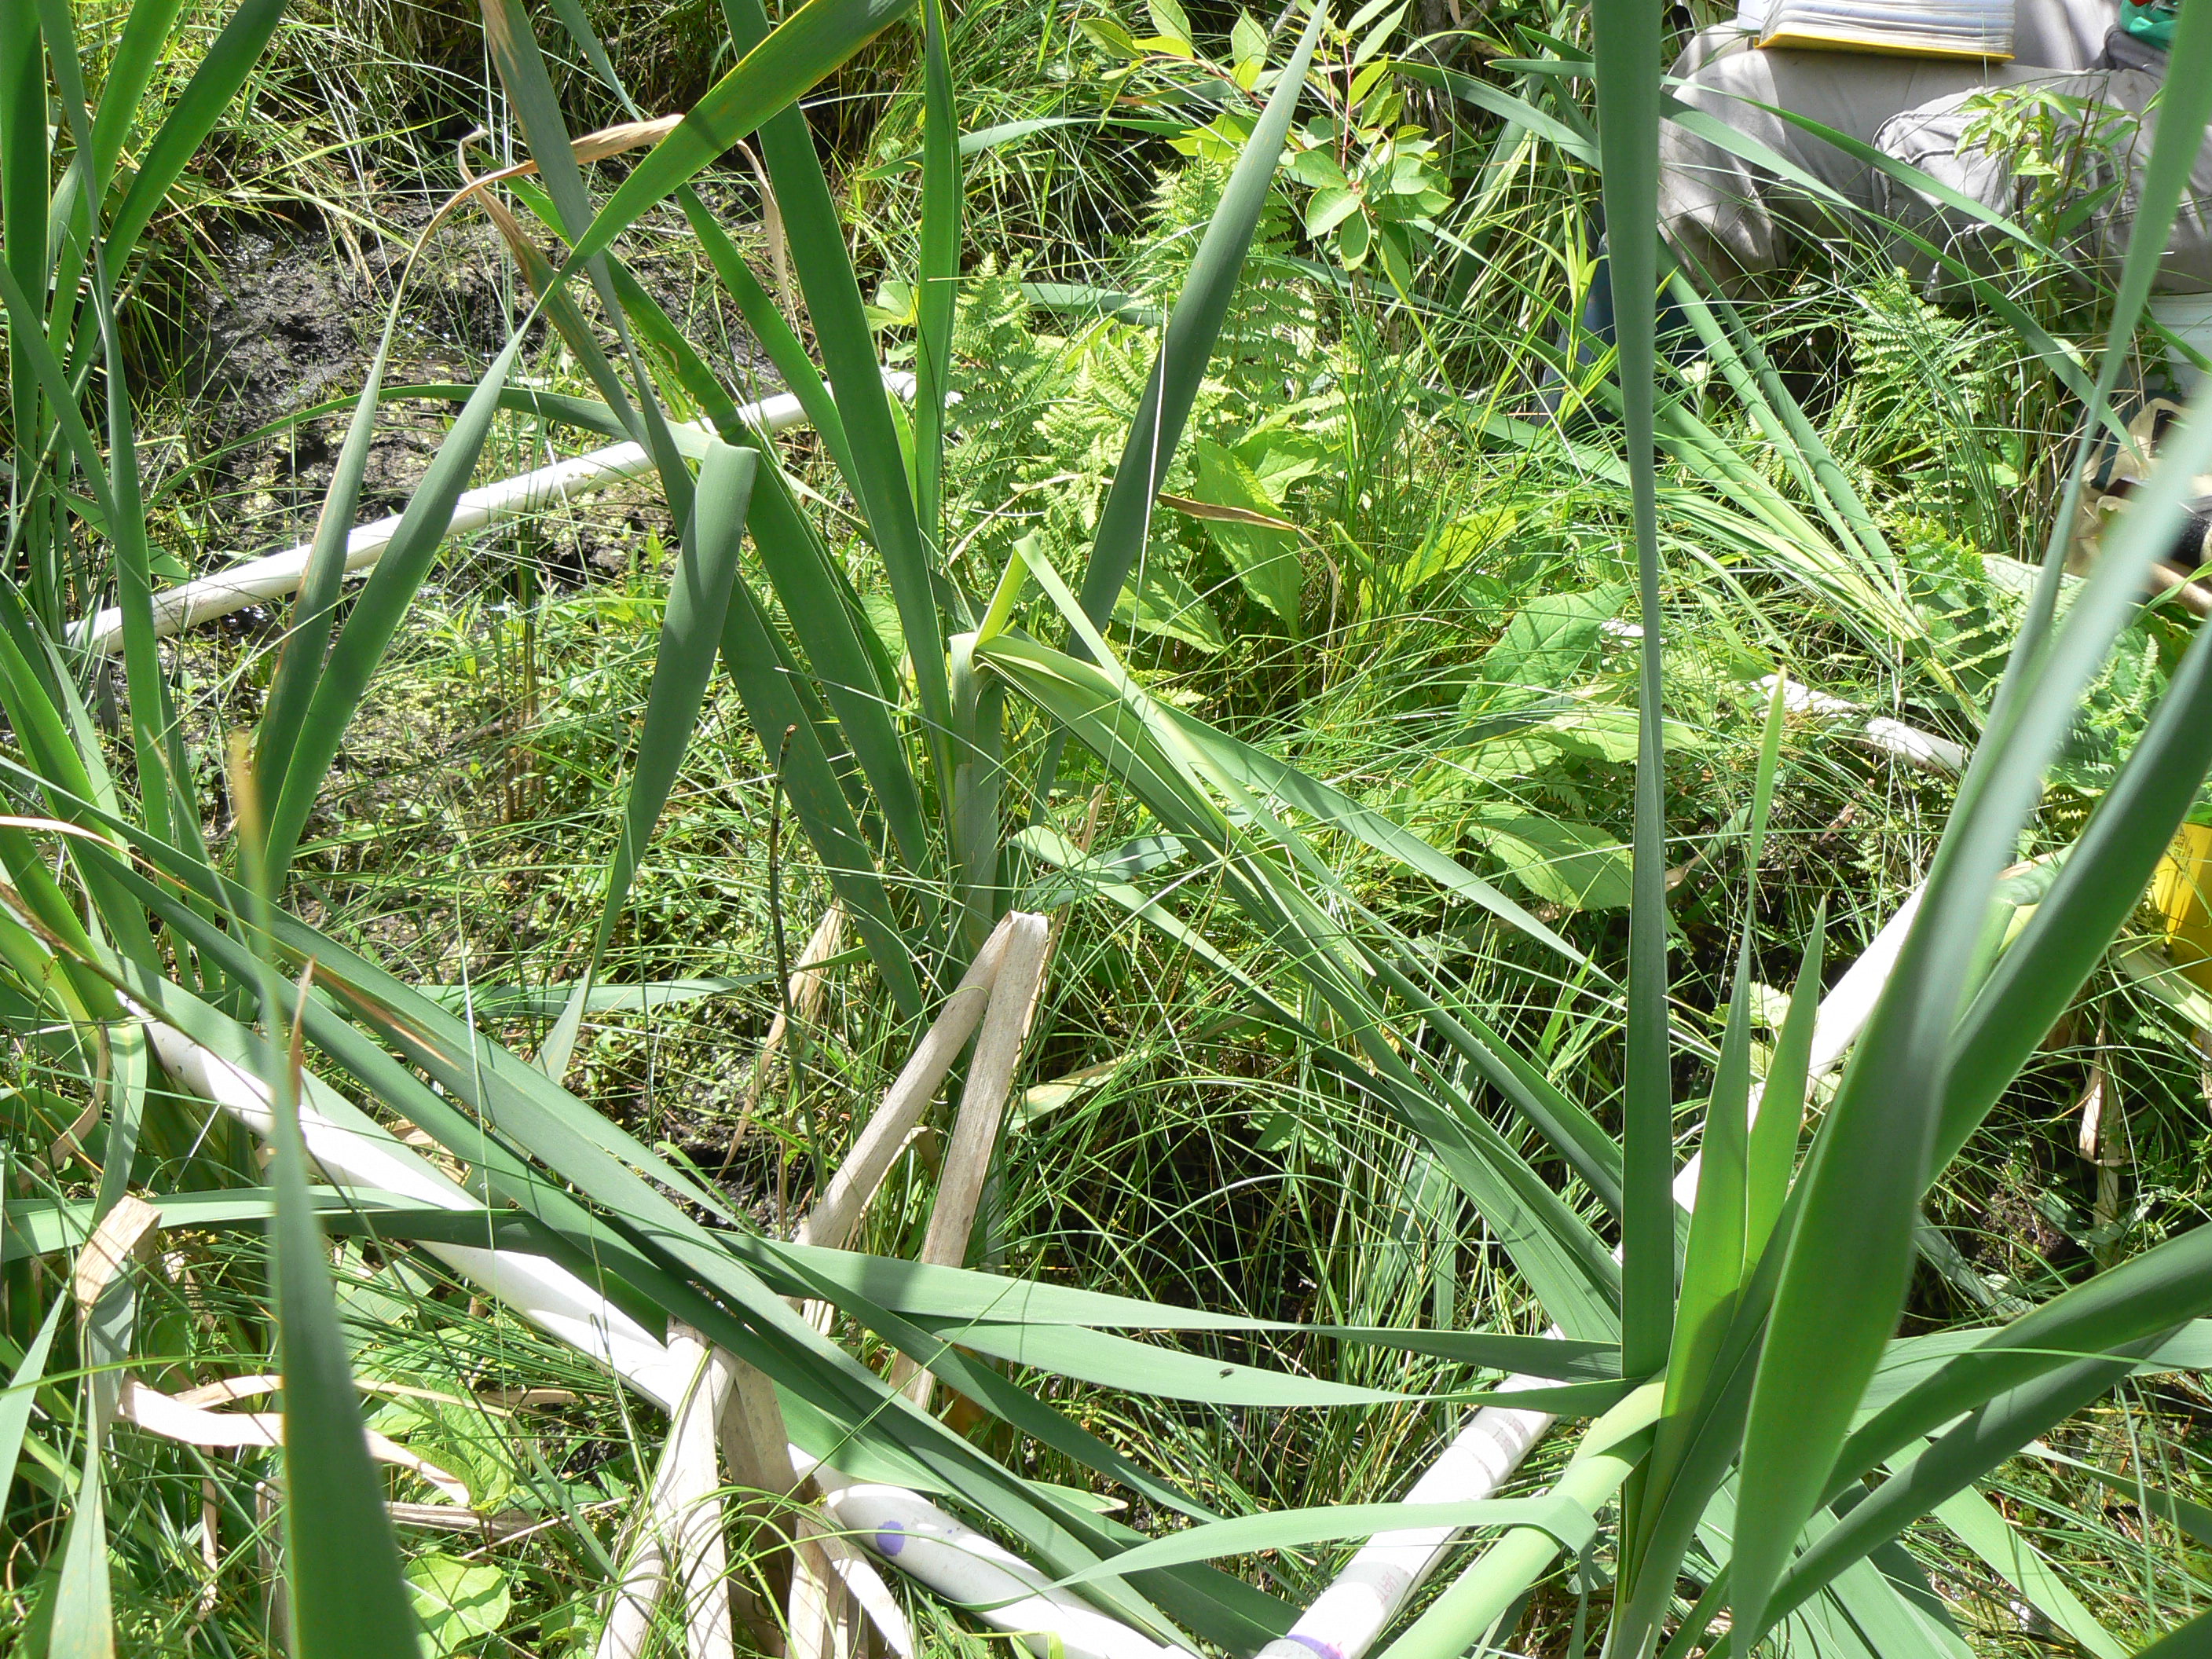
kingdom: Plantae
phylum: Tracheophyta
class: Magnoliopsida
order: Rosales
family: Rhamnaceae
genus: Frangula
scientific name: Frangula alnus
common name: Alder buckthorn
